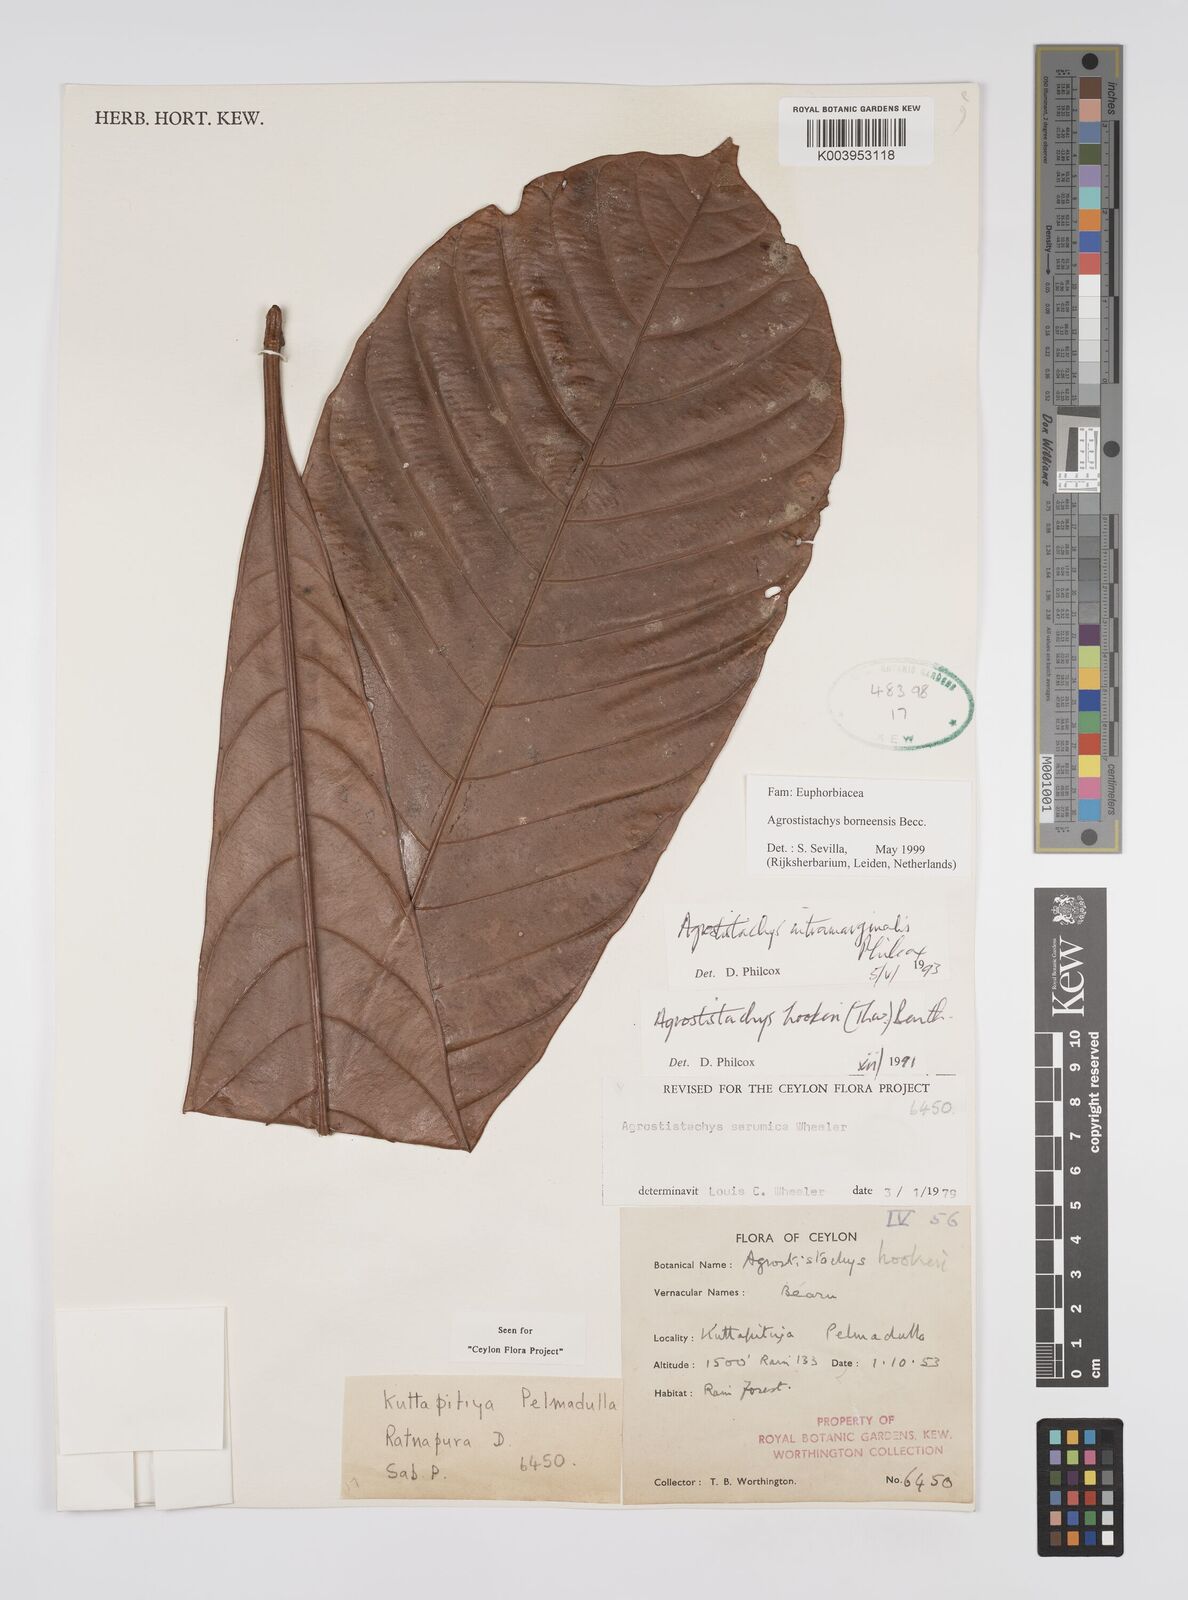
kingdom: Plantae
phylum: Tracheophyta
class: Magnoliopsida
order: Malpighiales
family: Euphorbiaceae
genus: Agrostistachys
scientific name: Agrostistachys borneensis
